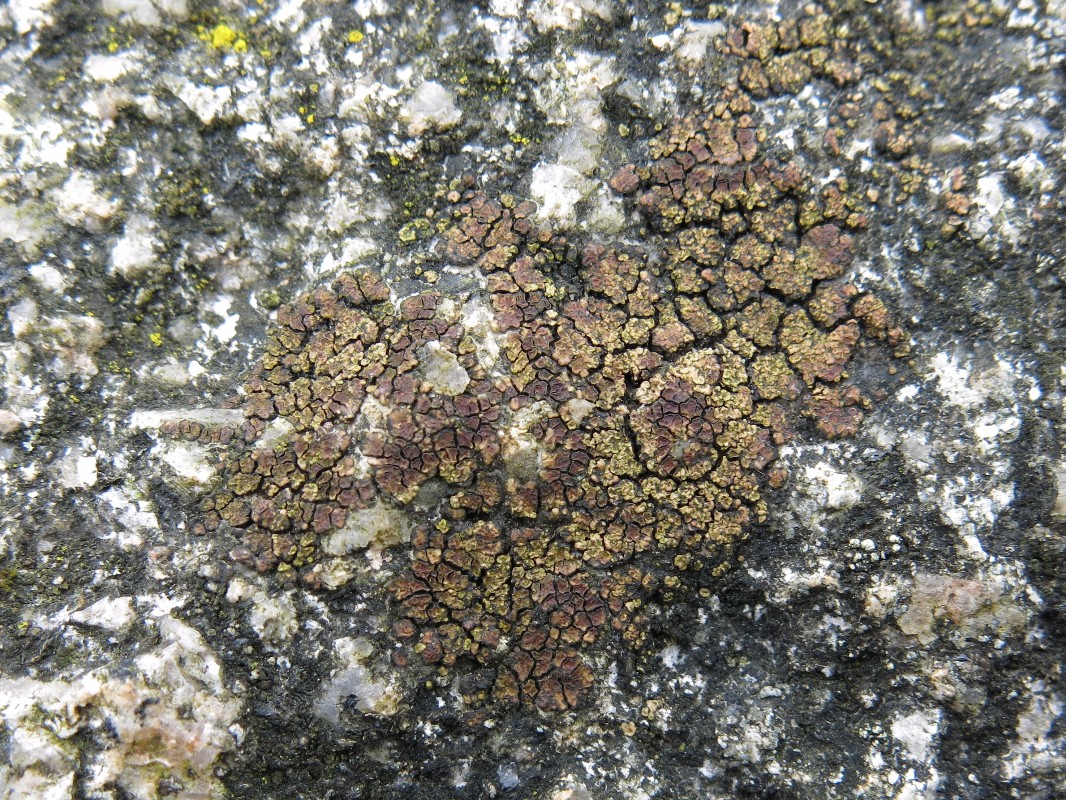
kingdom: Fungi
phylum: Ascomycota
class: Lecanoromycetes
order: Acarosporales
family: Acarosporaceae
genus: Acarospora
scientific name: Acarospora fuscata
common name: brun småsporelav
